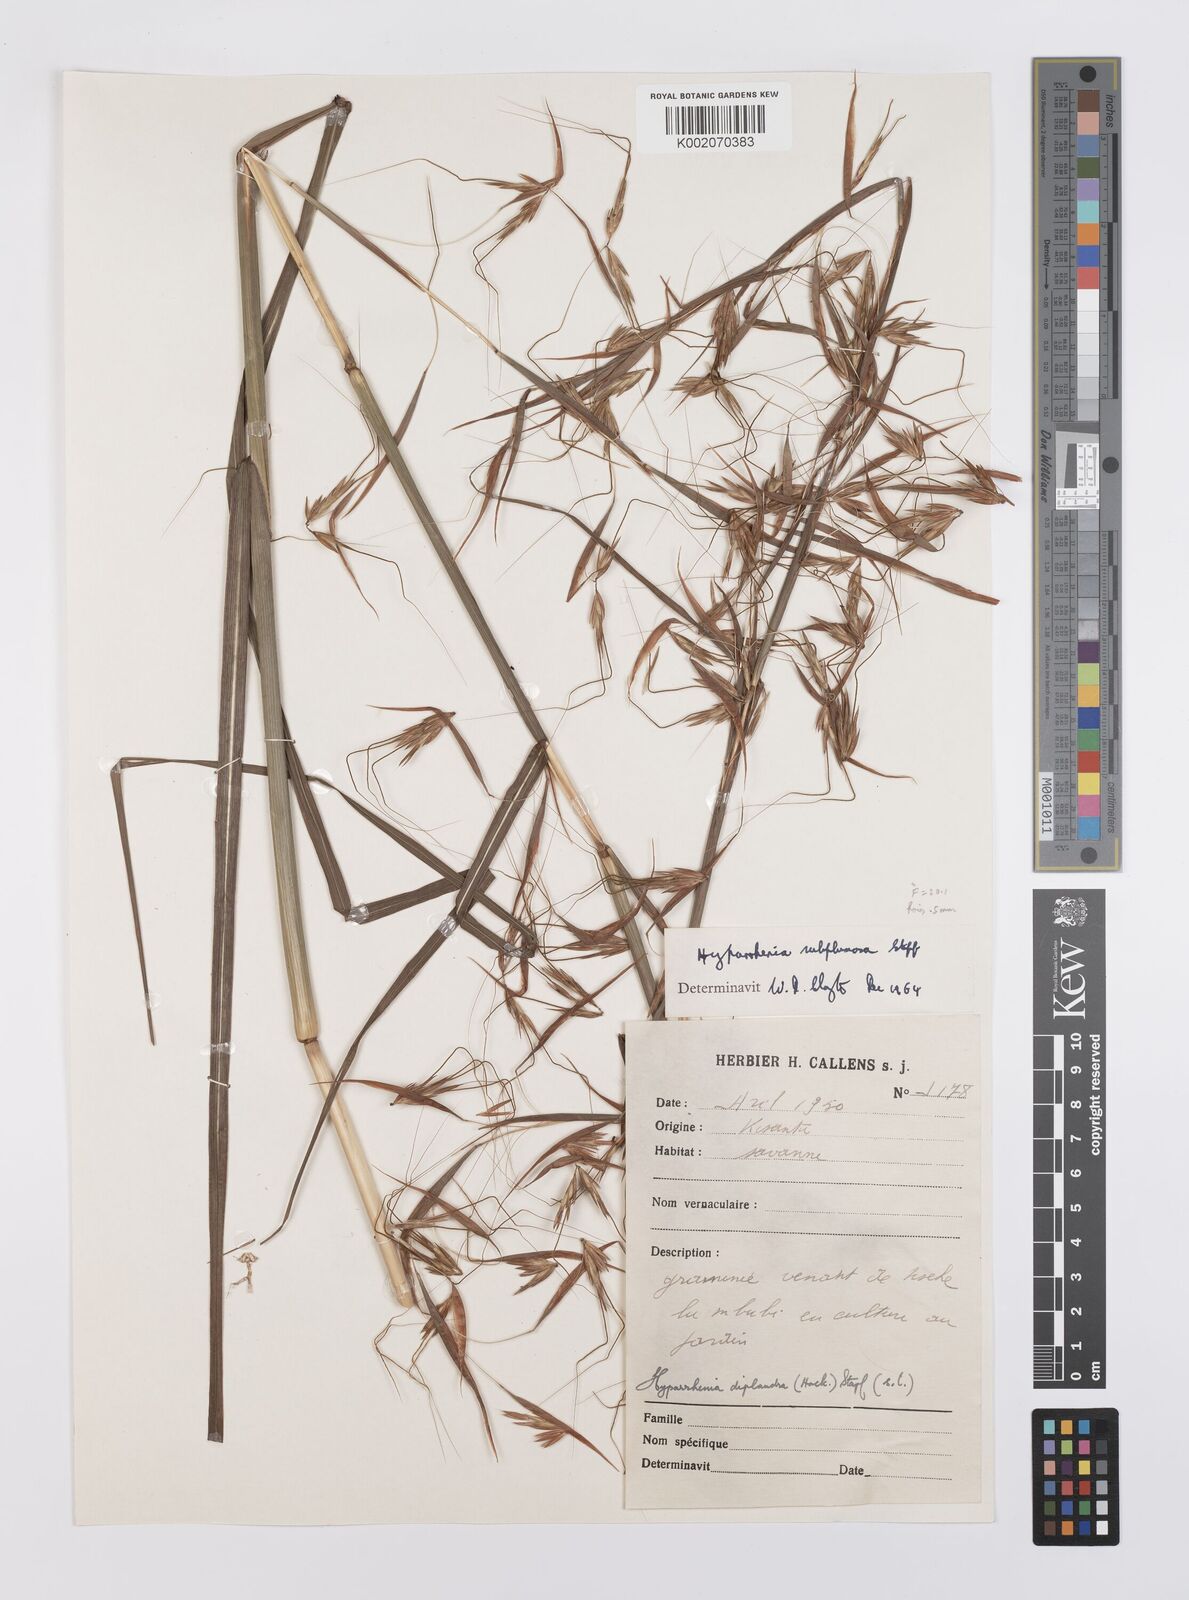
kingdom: Plantae
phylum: Tracheophyta
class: Liliopsida
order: Poales
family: Poaceae
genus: Hyparrhenia
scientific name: Hyparrhenia subplumosa
